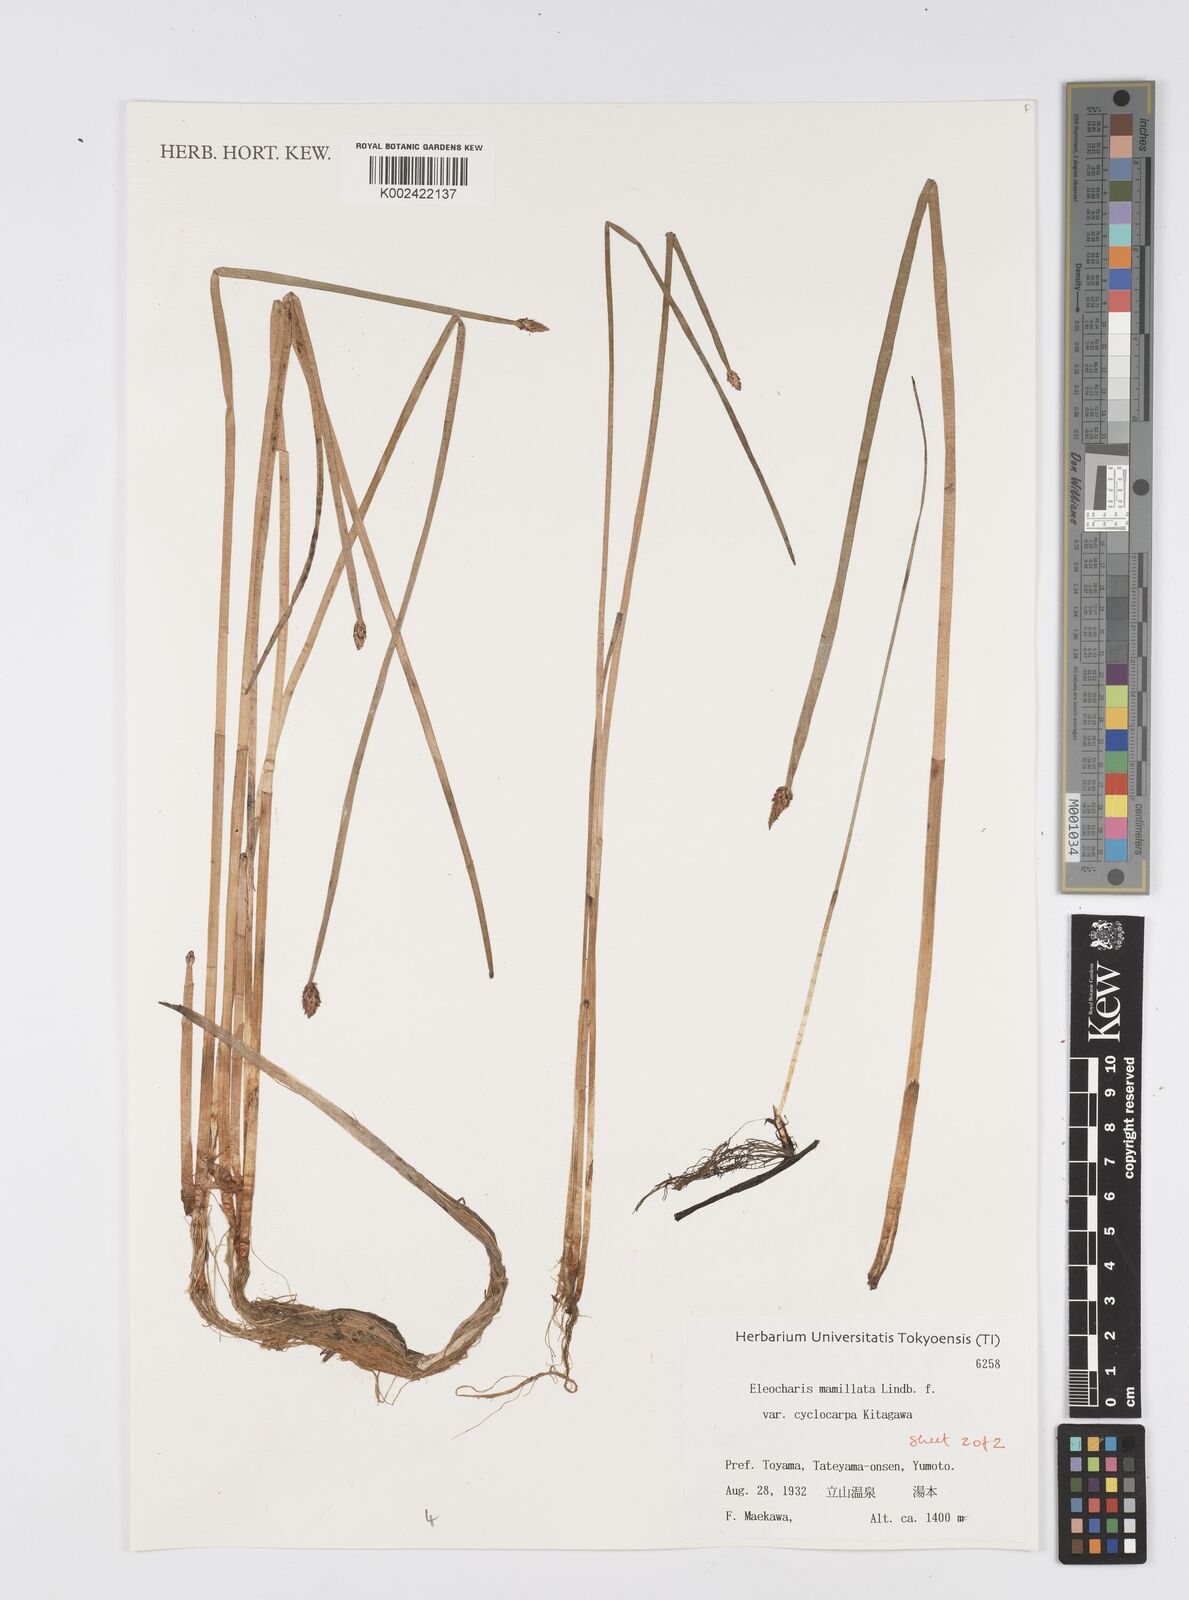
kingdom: Plantae
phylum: Tracheophyta
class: Liliopsida
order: Poales
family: Cyperaceae
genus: Eleocharis
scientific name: Eleocharis mamillata
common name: Northern spike-rush
